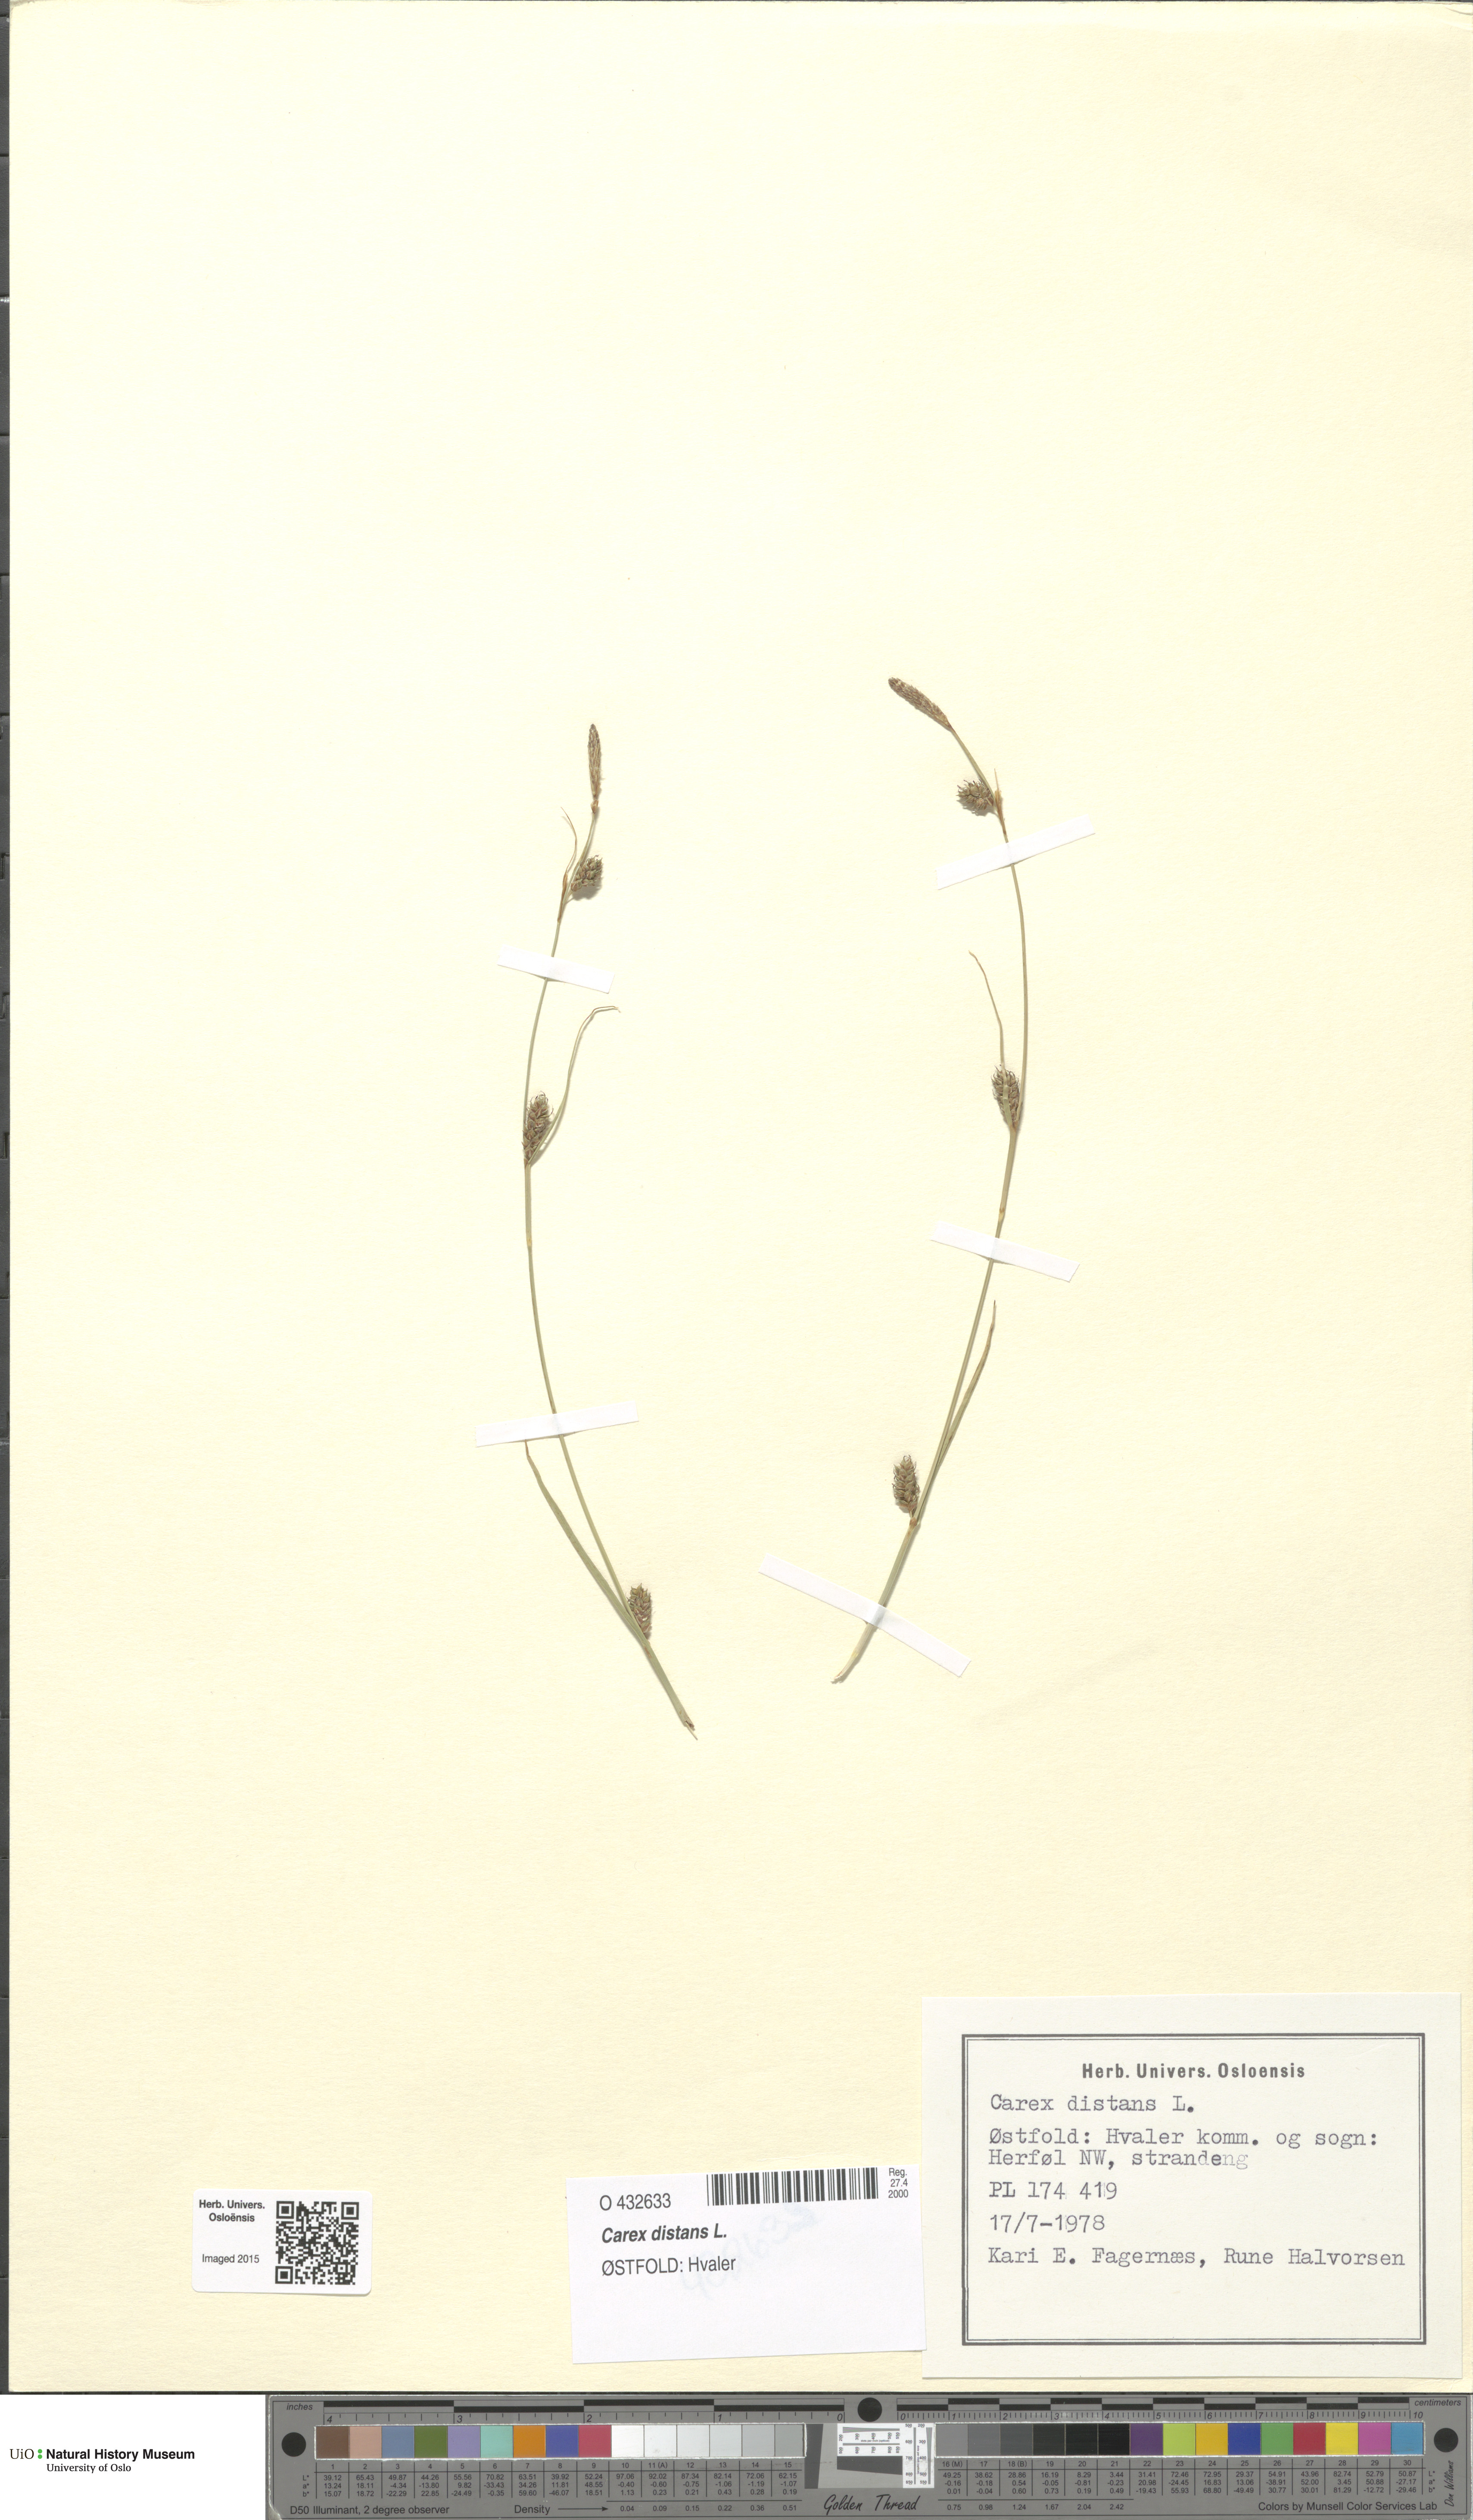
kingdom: Plantae
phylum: Tracheophyta
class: Liliopsida
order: Poales
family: Cyperaceae
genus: Carex
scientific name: Carex distans
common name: Distant sedge
